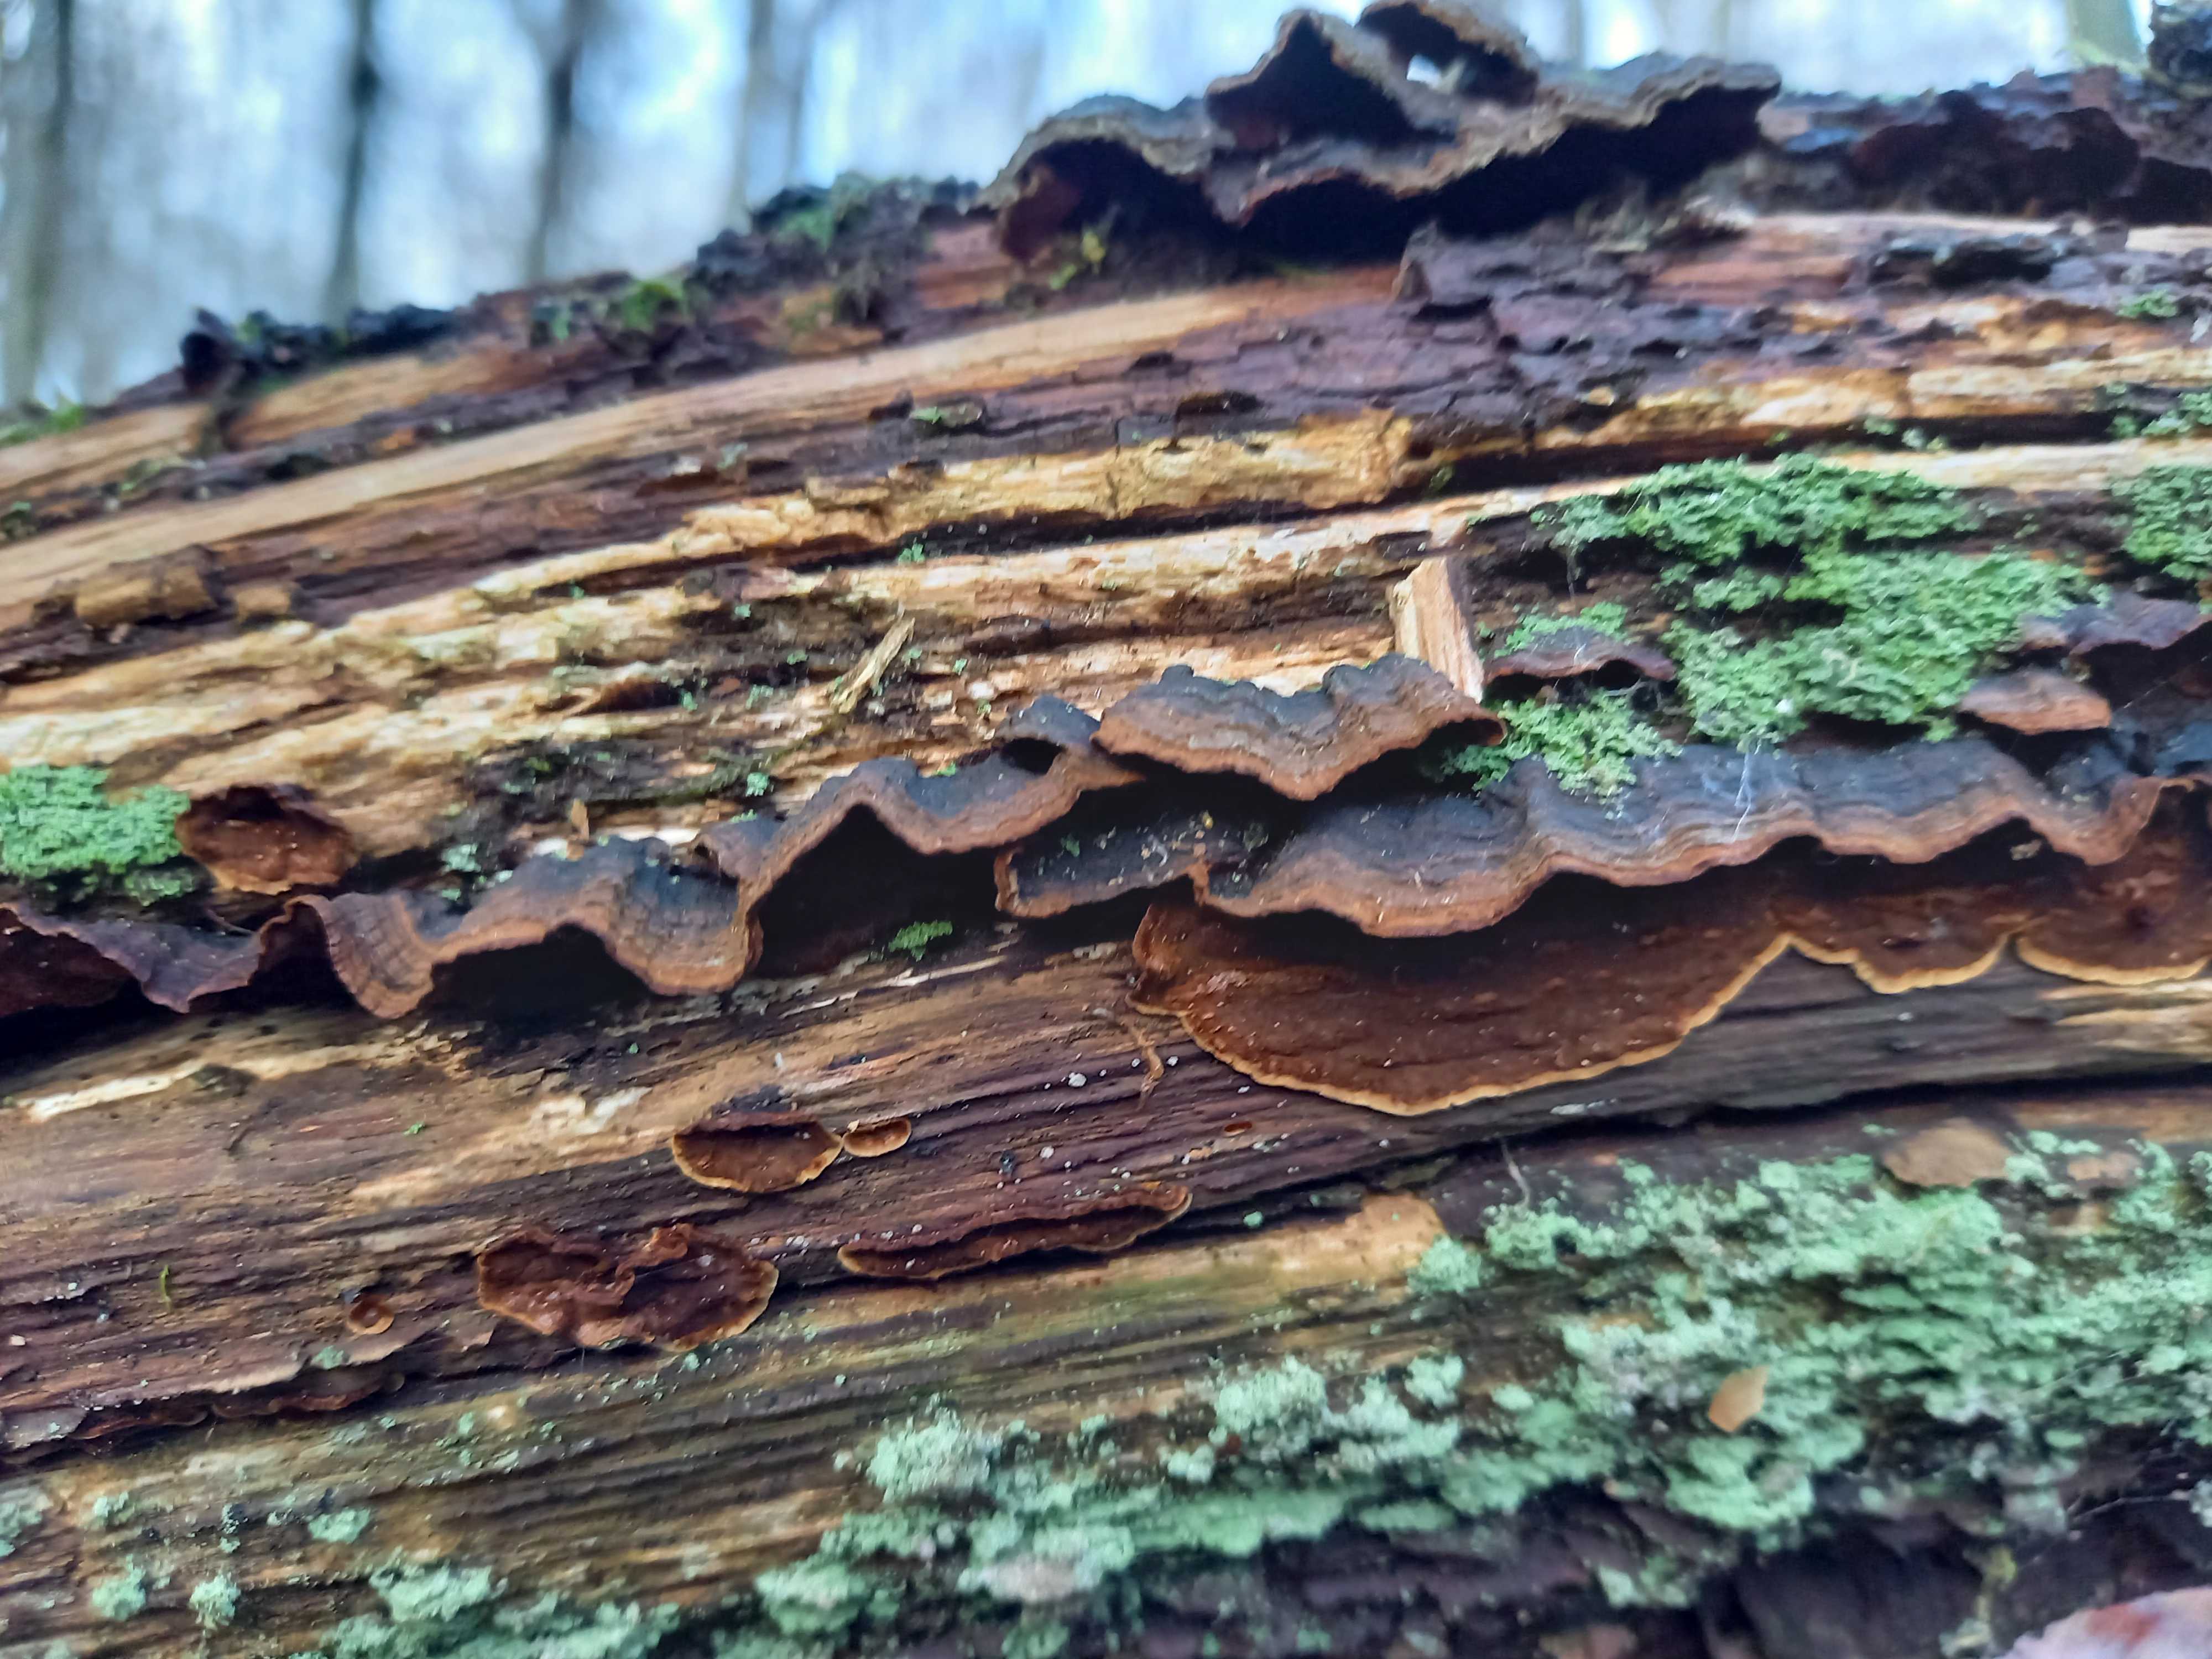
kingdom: Fungi
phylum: Basidiomycota
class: Agaricomycetes
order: Hymenochaetales
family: Hymenochaetaceae
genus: Hymenochaete
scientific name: Hymenochaete rubiginosa
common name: stiv ruslædersvamp
